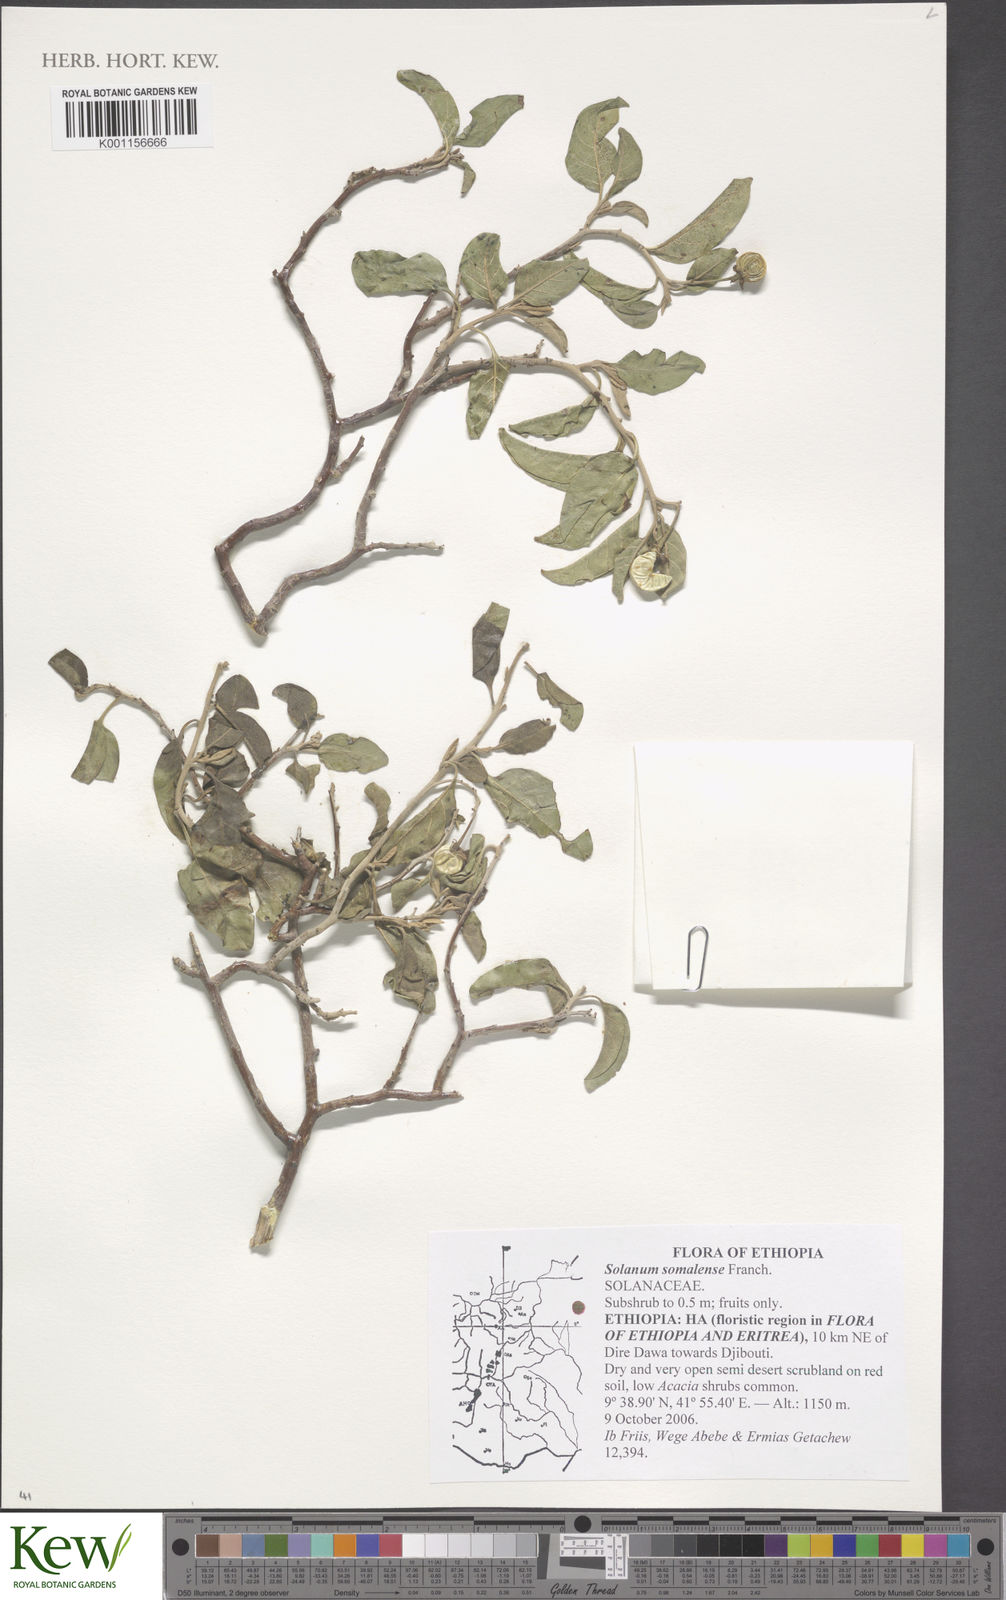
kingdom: Plantae
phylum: Tracheophyta
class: Magnoliopsida
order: Solanales
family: Solanaceae
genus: Solanum
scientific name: Solanum somalense
